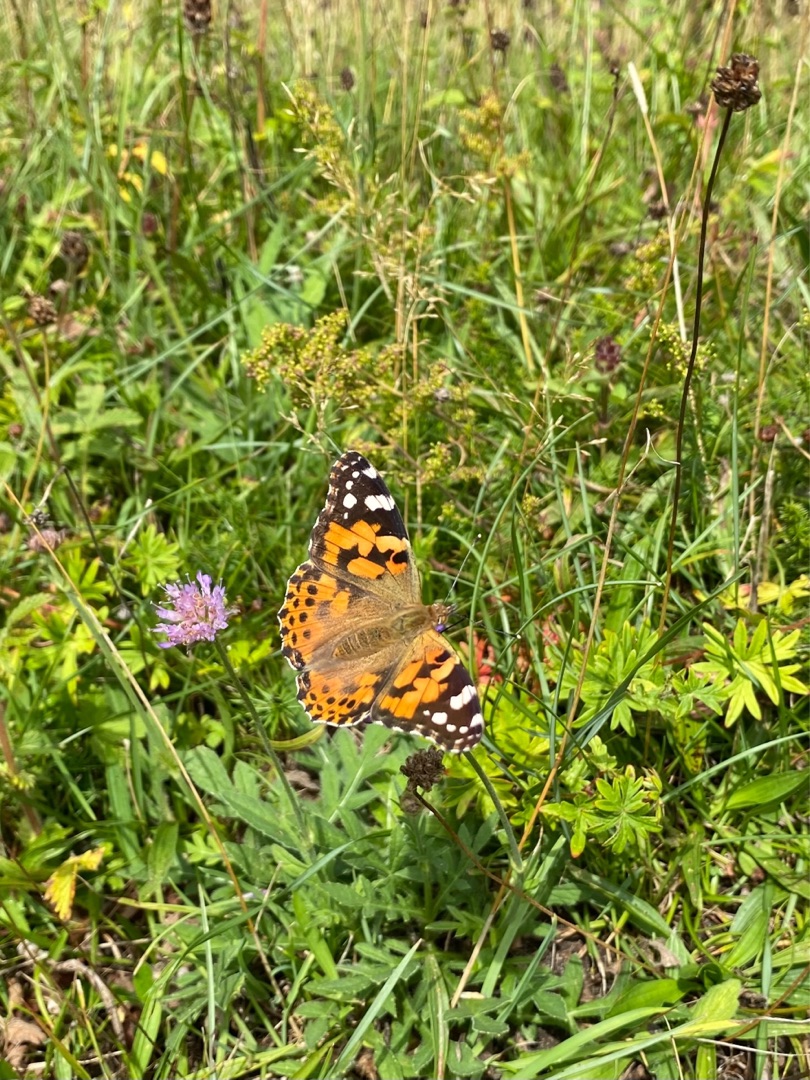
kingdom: Animalia
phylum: Arthropoda
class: Insecta
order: Lepidoptera
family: Nymphalidae
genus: Vanessa
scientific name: Vanessa cardui
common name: Tidselsommerfugl
